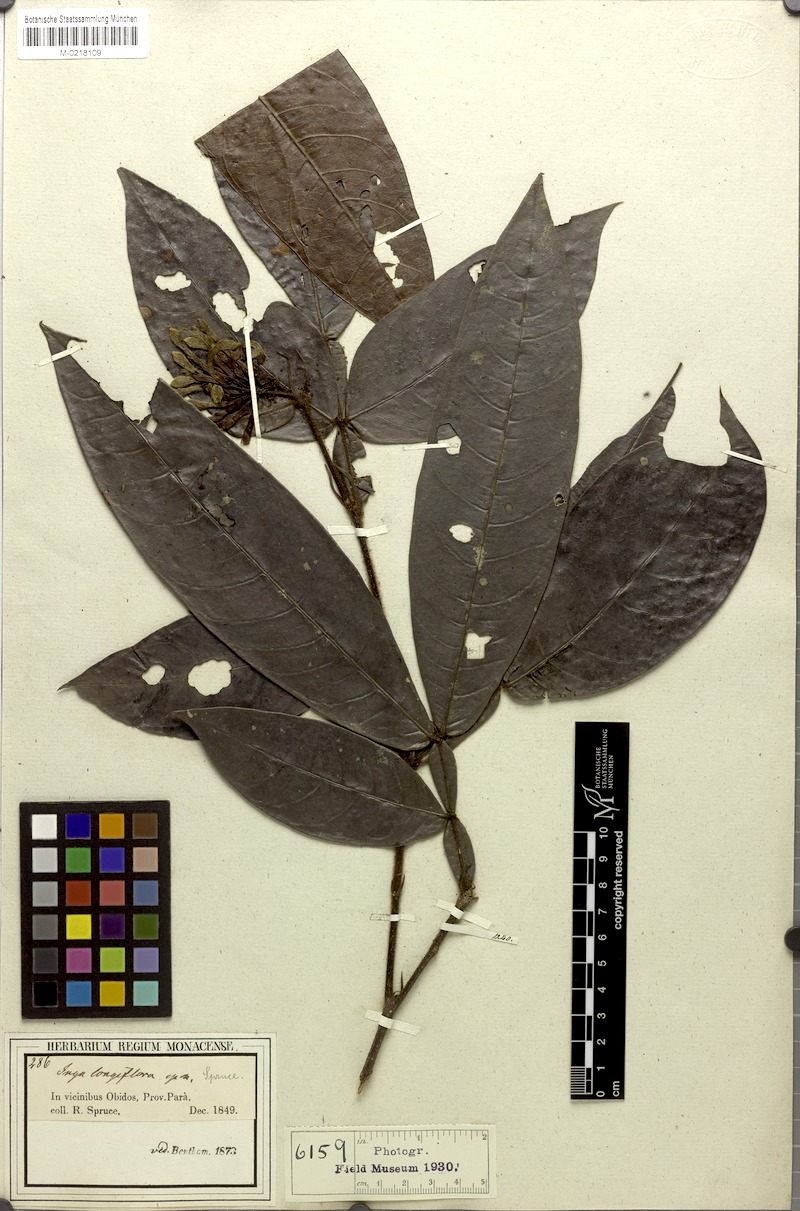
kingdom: Plantae
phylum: Tracheophyta
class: Magnoliopsida
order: Fabales
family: Fabaceae
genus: Inga
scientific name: Inga longiflora
